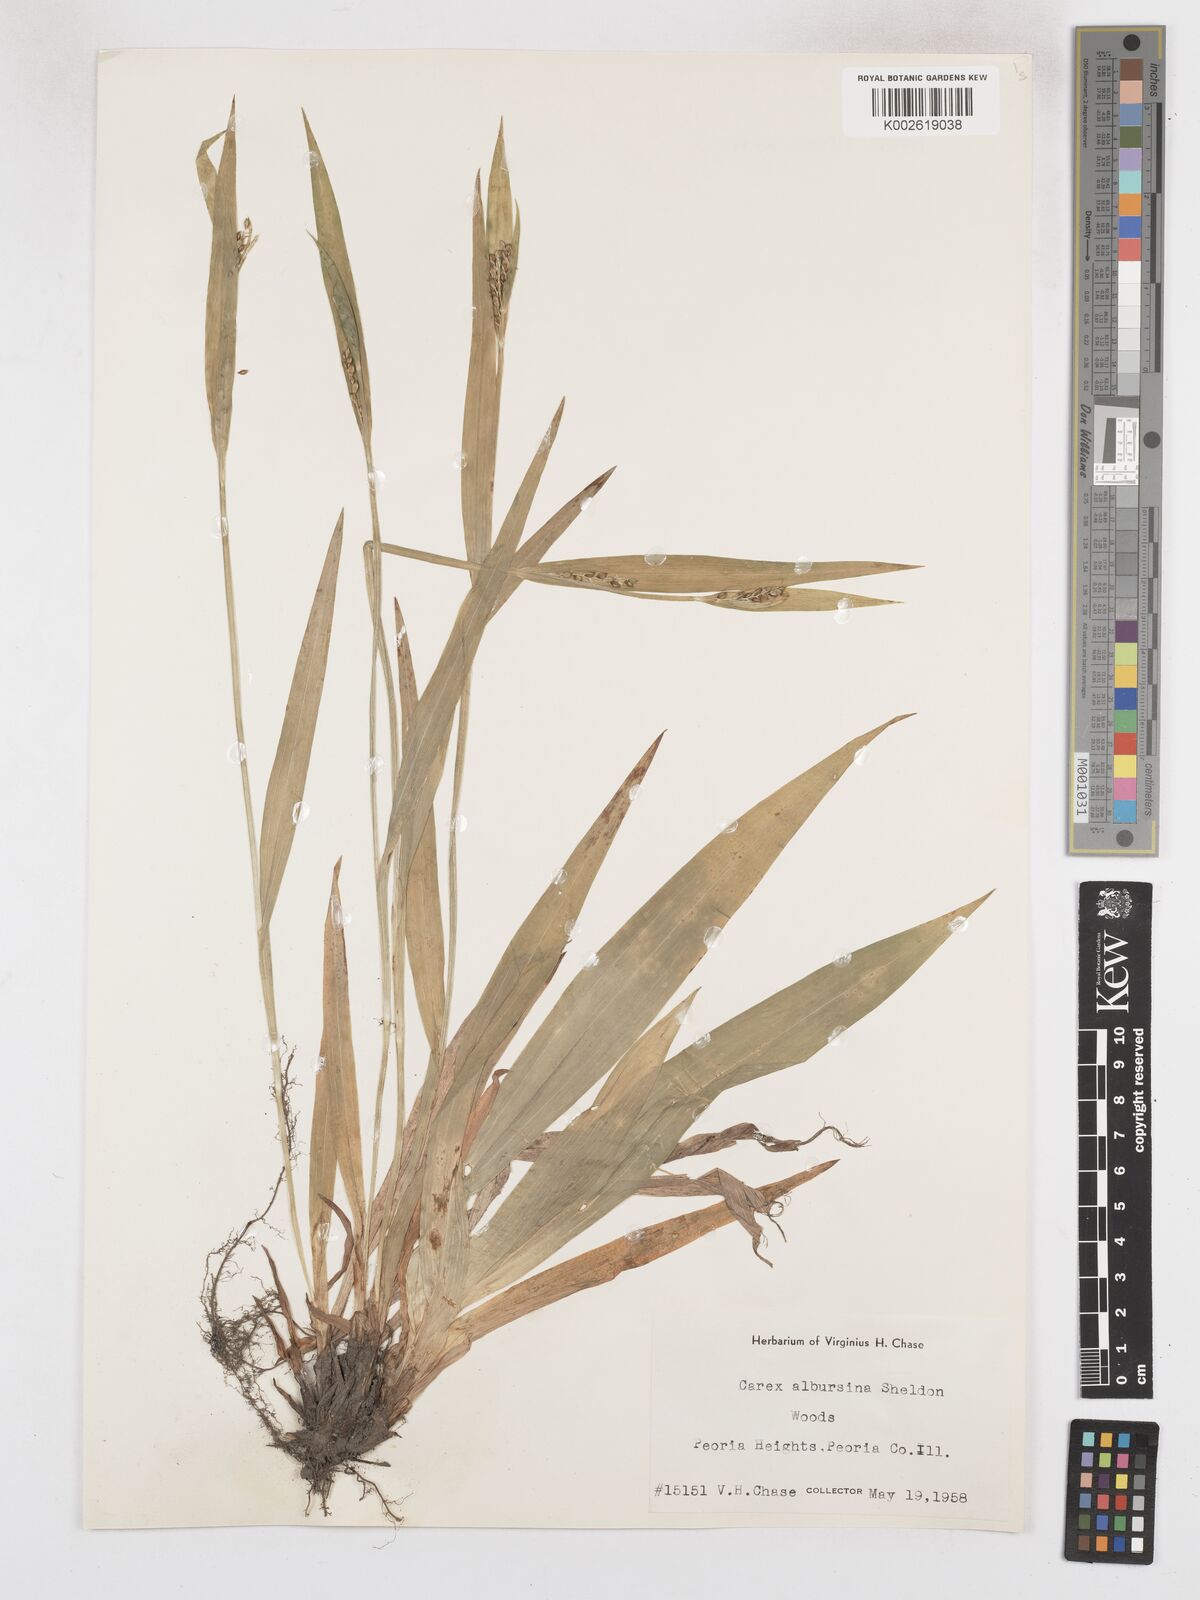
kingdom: Plantae
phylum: Tracheophyta
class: Liliopsida
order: Poales
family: Cyperaceae
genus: Carex
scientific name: Carex albursina
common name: Blunt-scale wood sedge
